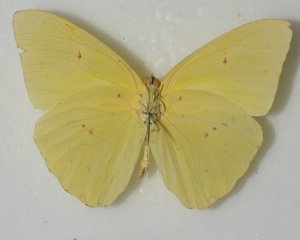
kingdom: Animalia
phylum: Arthropoda
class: Insecta
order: Lepidoptera
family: Pieridae
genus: Phoebis
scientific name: Phoebis sennae
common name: Cloudless Sulphur
